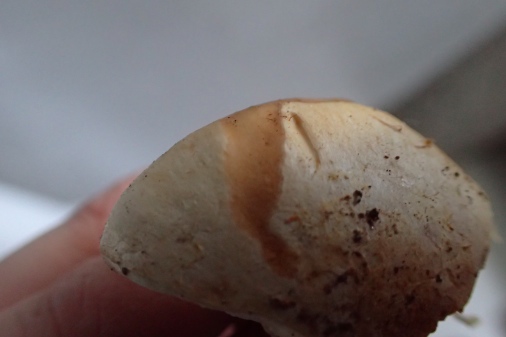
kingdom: Fungi
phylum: Basidiomycota
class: Agaricomycetes
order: Agaricales
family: Cortinariaceae
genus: Cortinarius
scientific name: Cortinarius foetens
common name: stribet slørhat
